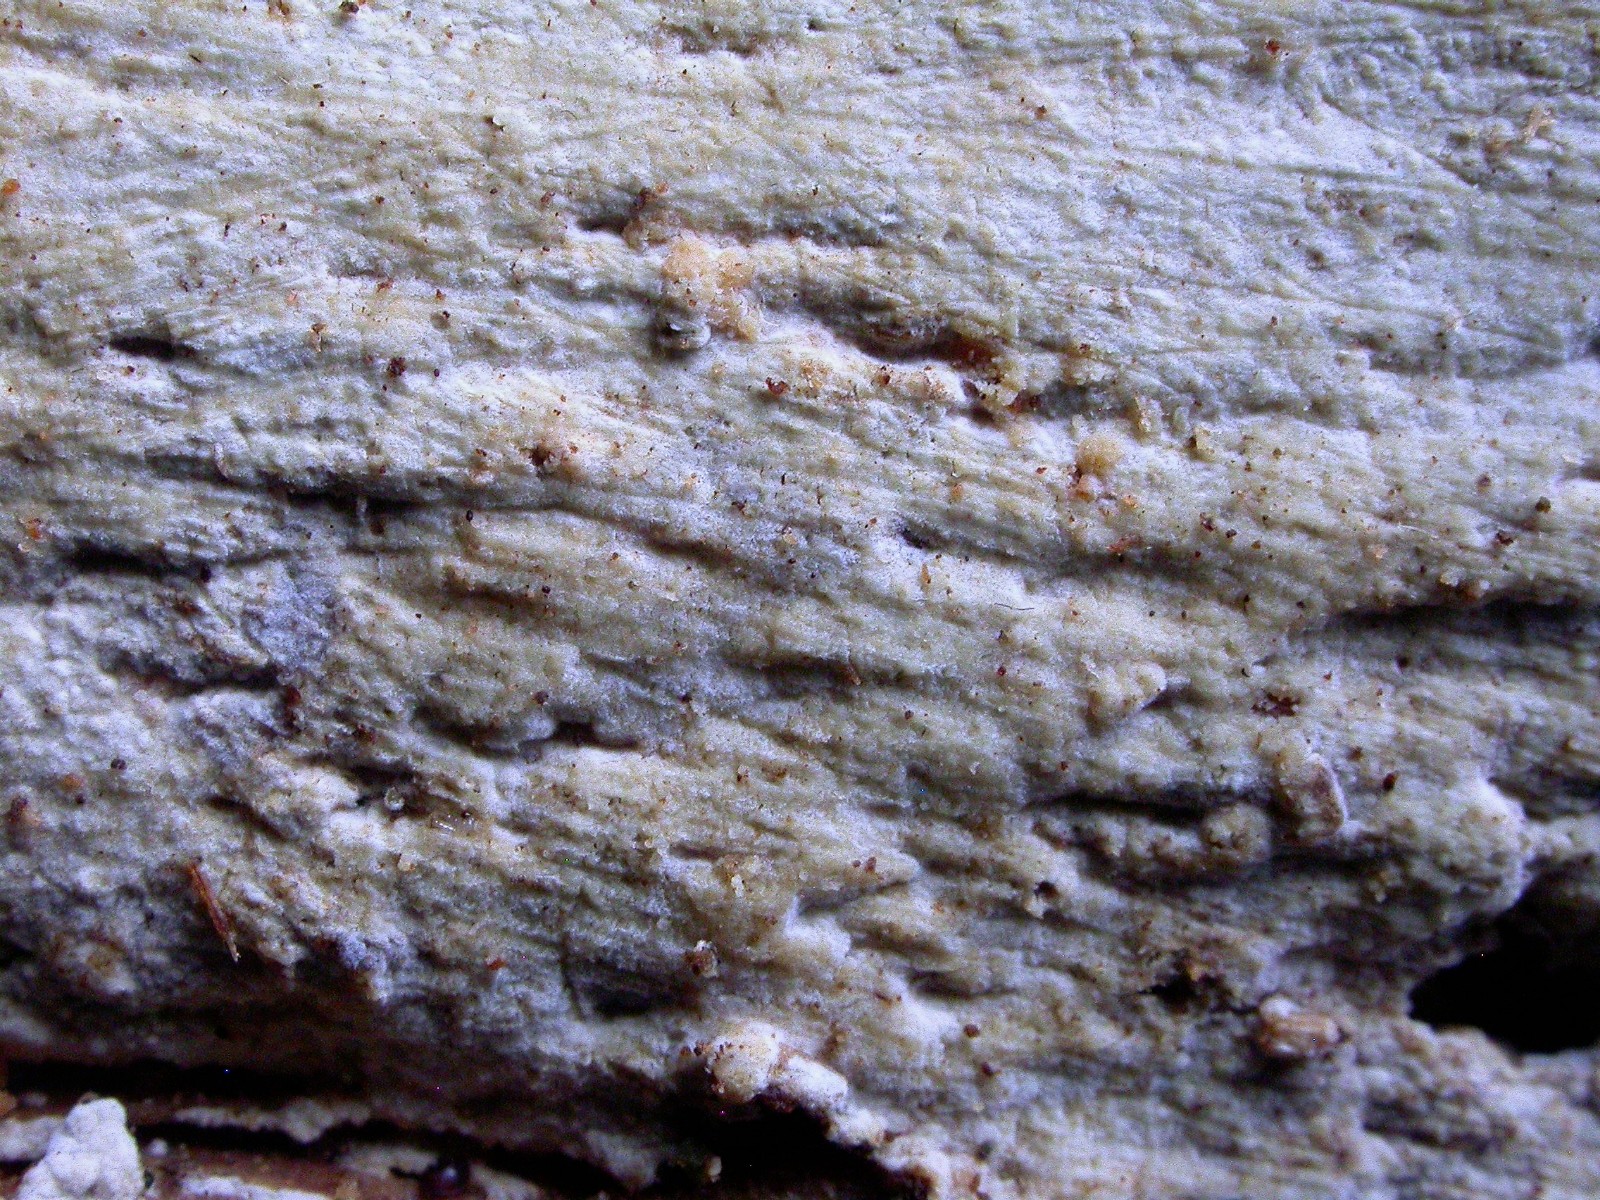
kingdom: Fungi
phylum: Basidiomycota
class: Agaricomycetes
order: Hymenochaetales
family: Hyphodontiaceae
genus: Hyphodontia
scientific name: Hyphodontia alutaria
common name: flaskerenser-nålehinde
